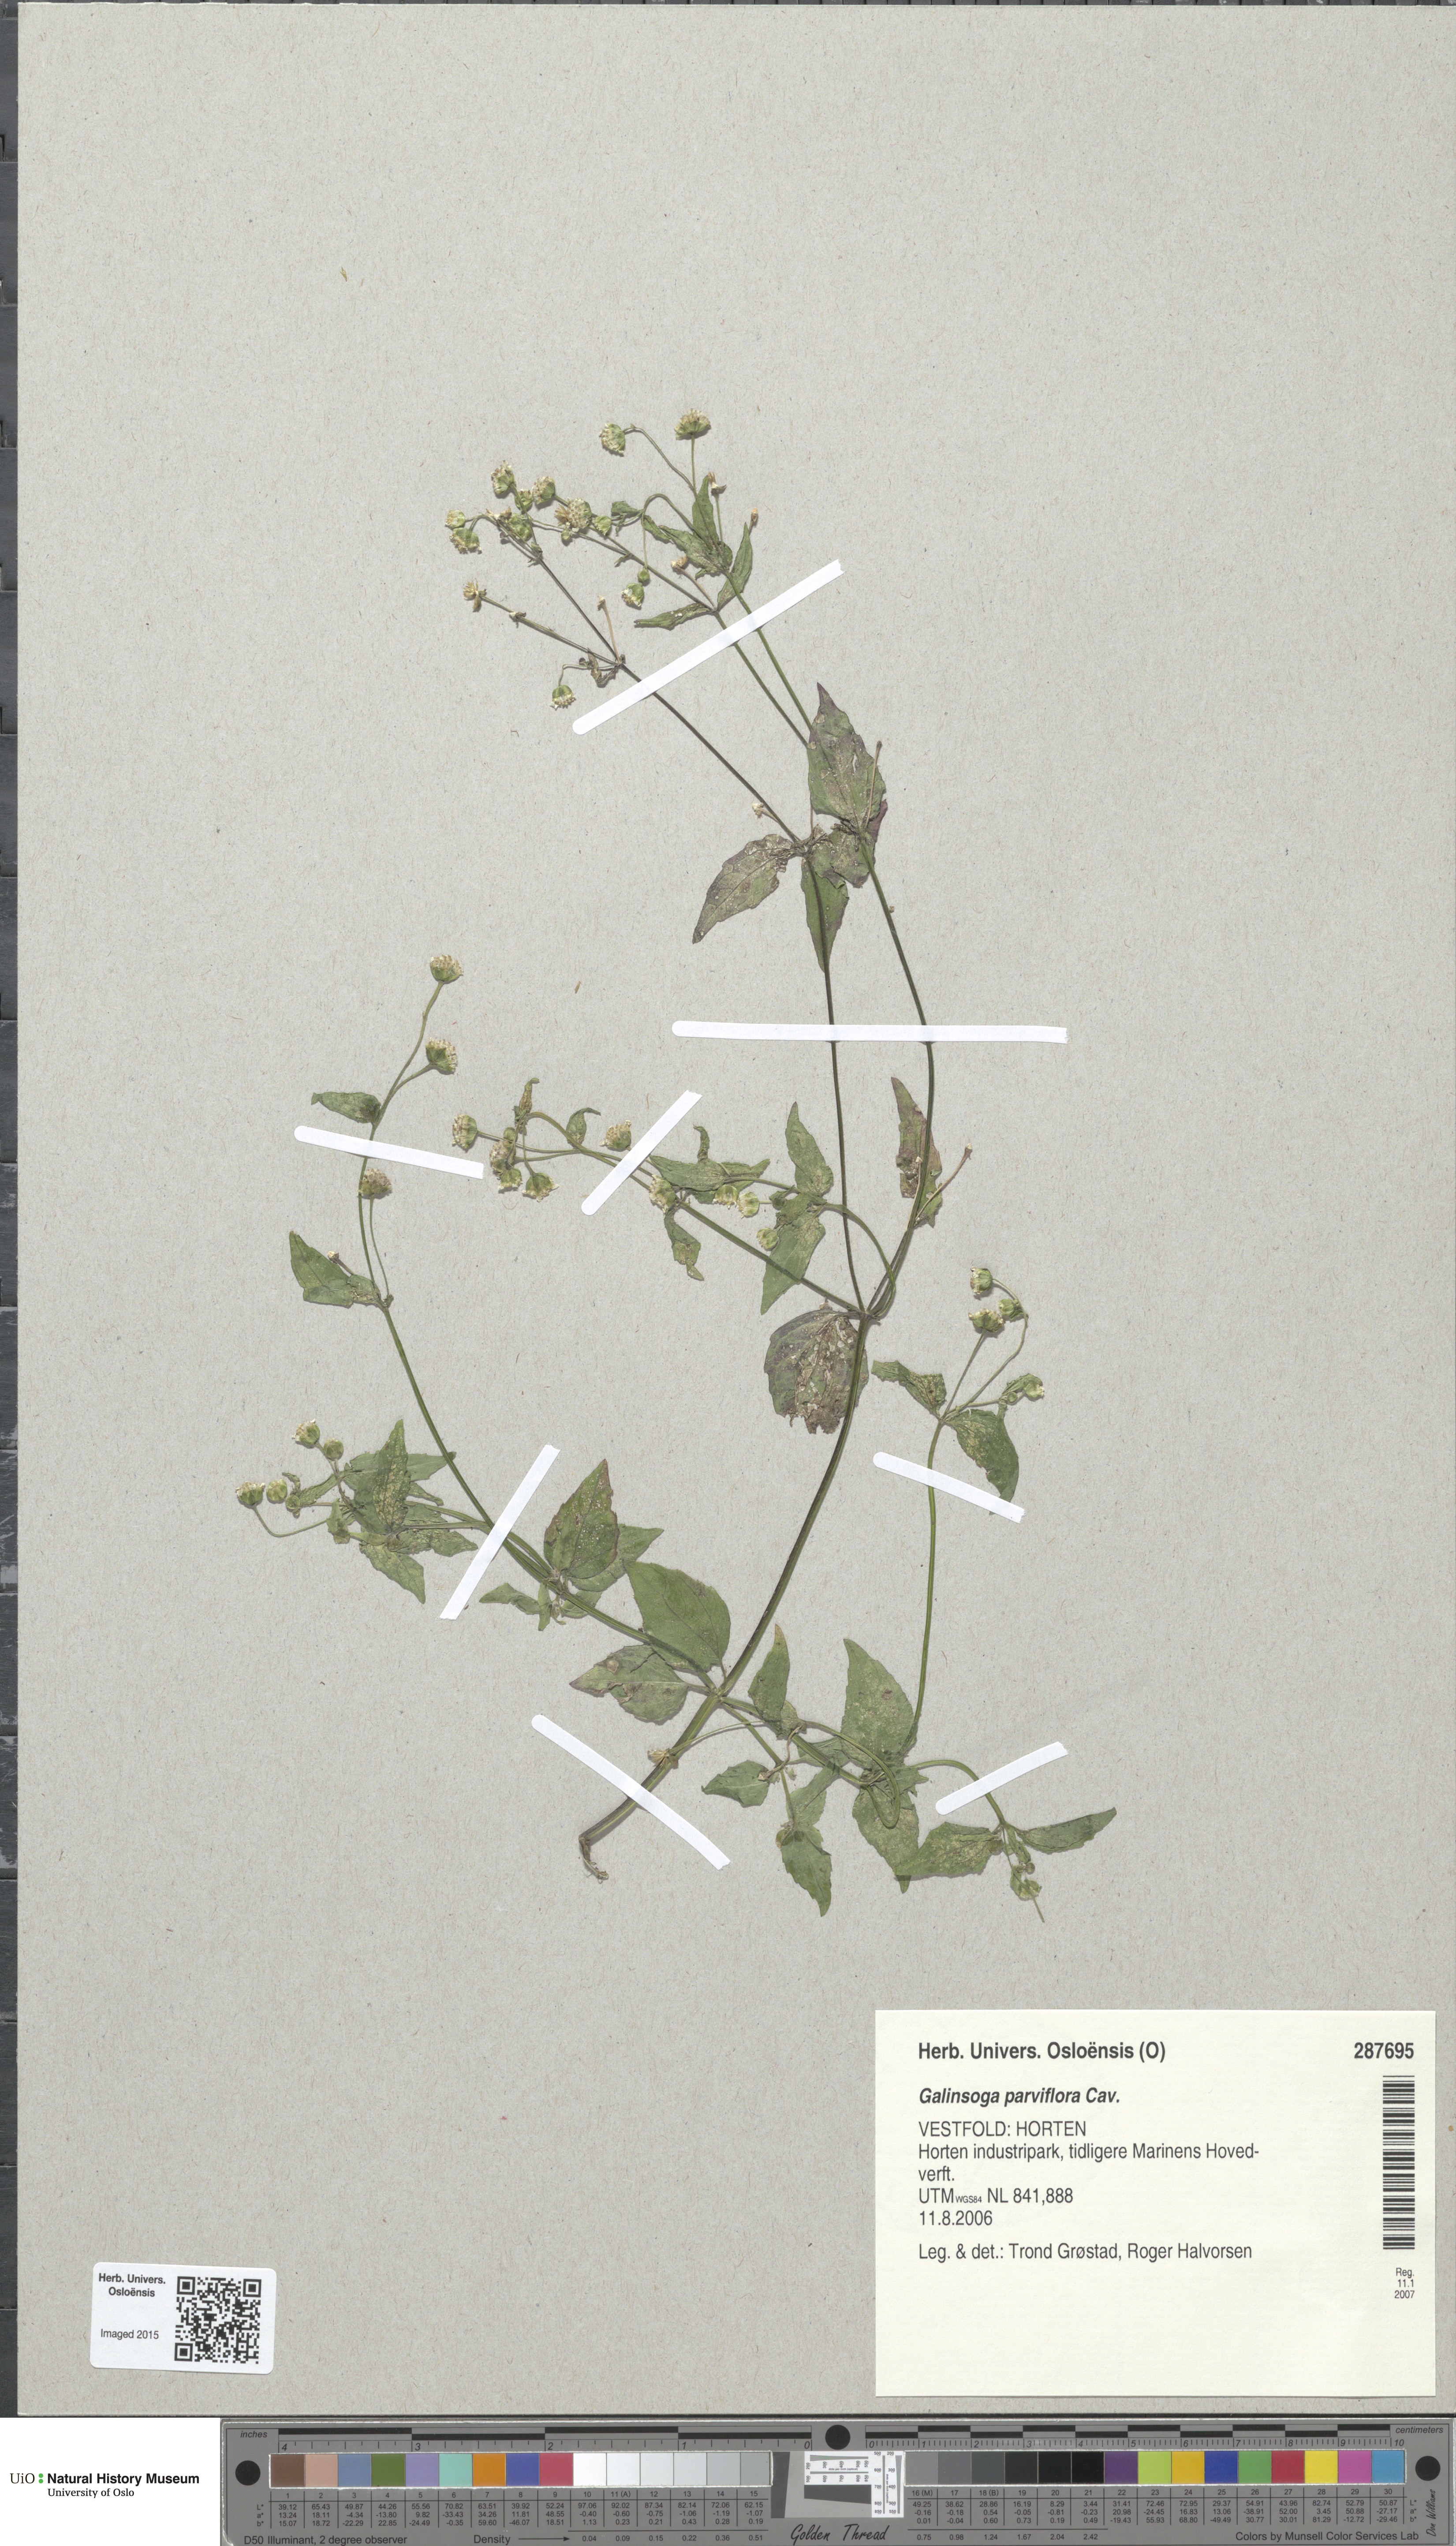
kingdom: Plantae
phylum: Tracheophyta
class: Magnoliopsida
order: Asterales
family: Asteraceae
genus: Galinsoga
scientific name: Galinsoga parviflora
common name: Gallant soldier
